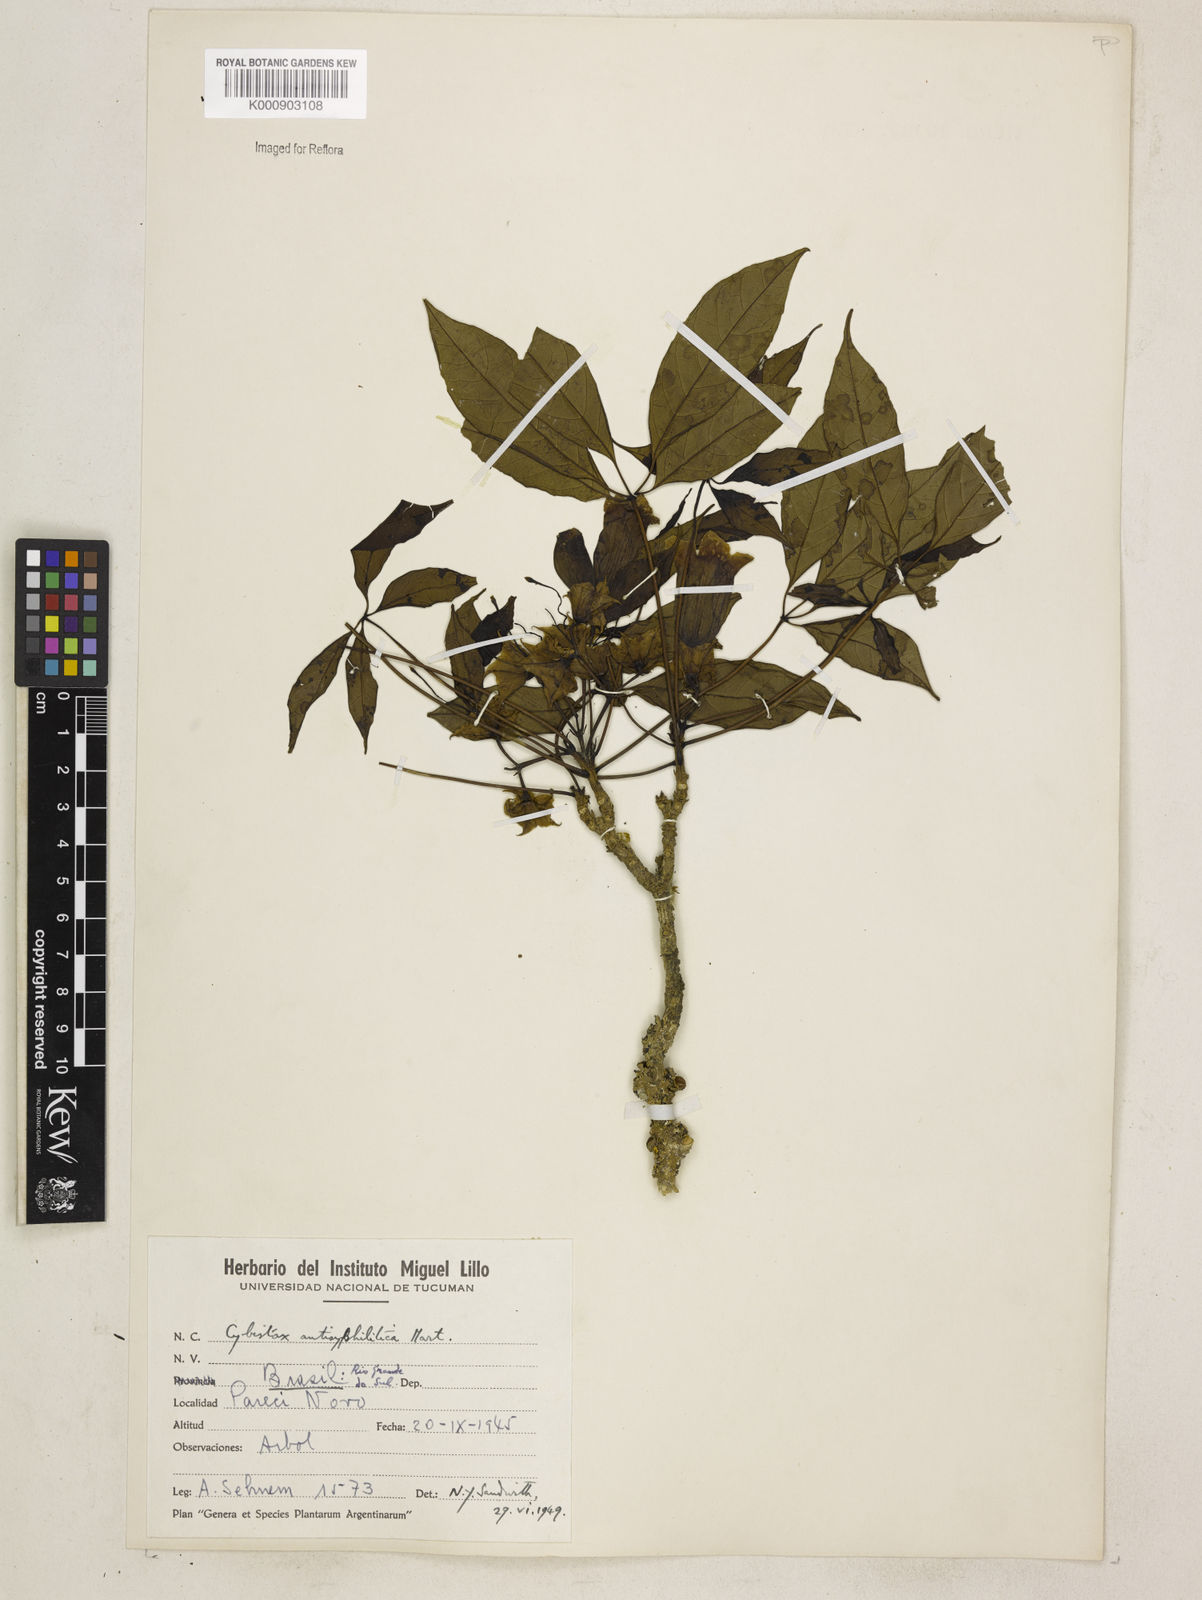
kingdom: Plantae
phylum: Tracheophyta
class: Magnoliopsida
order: Lamiales
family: Bignoniaceae
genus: Cybistax
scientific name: Cybistax antisyphilitica
